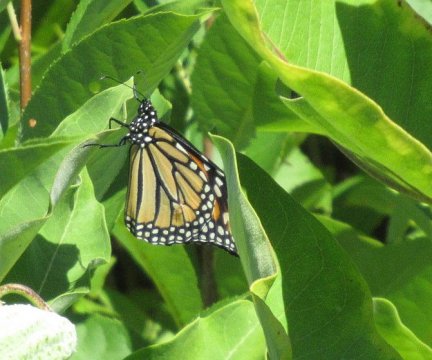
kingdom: Animalia
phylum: Arthropoda
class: Insecta
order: Lepidoptera
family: Nymphalidae
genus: Danaus
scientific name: Danaus plexippus
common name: Monarch
